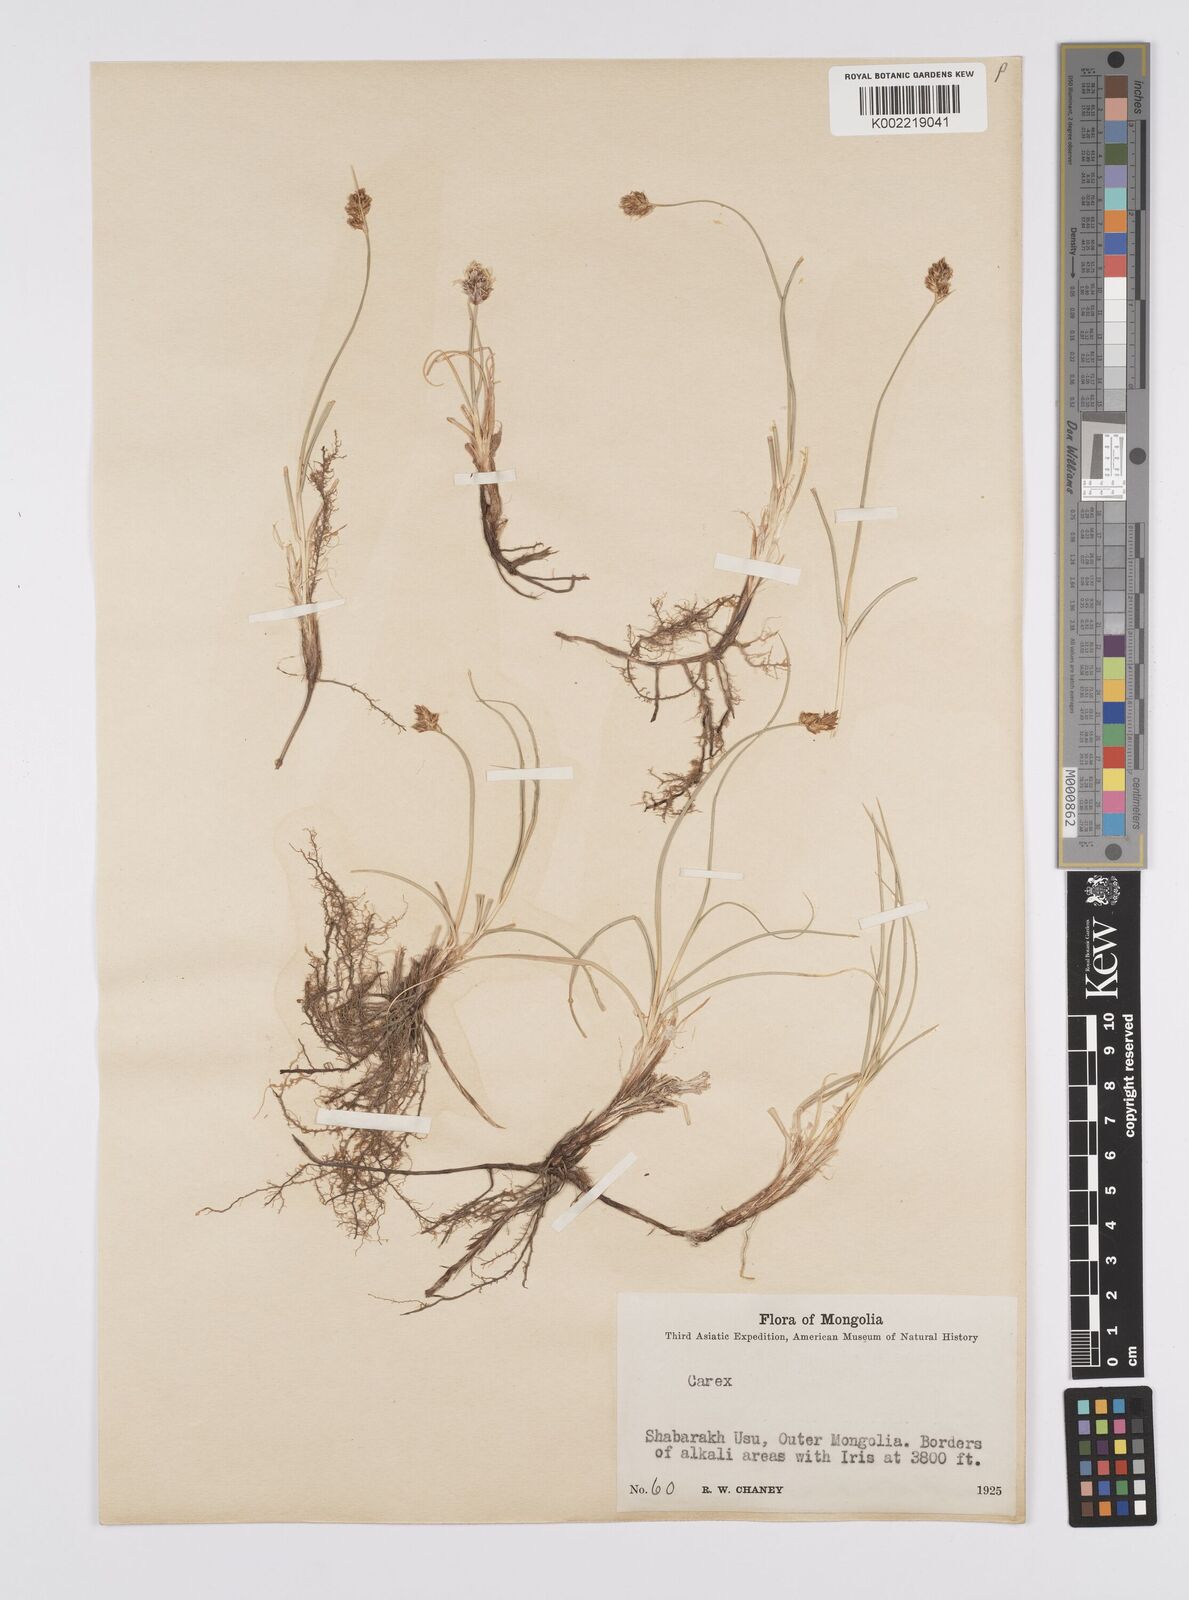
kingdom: Plantae
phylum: Tracheophyta
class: Liliopsida
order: Poales
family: Cyperaceae
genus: Carex
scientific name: Carex yamatsutana
